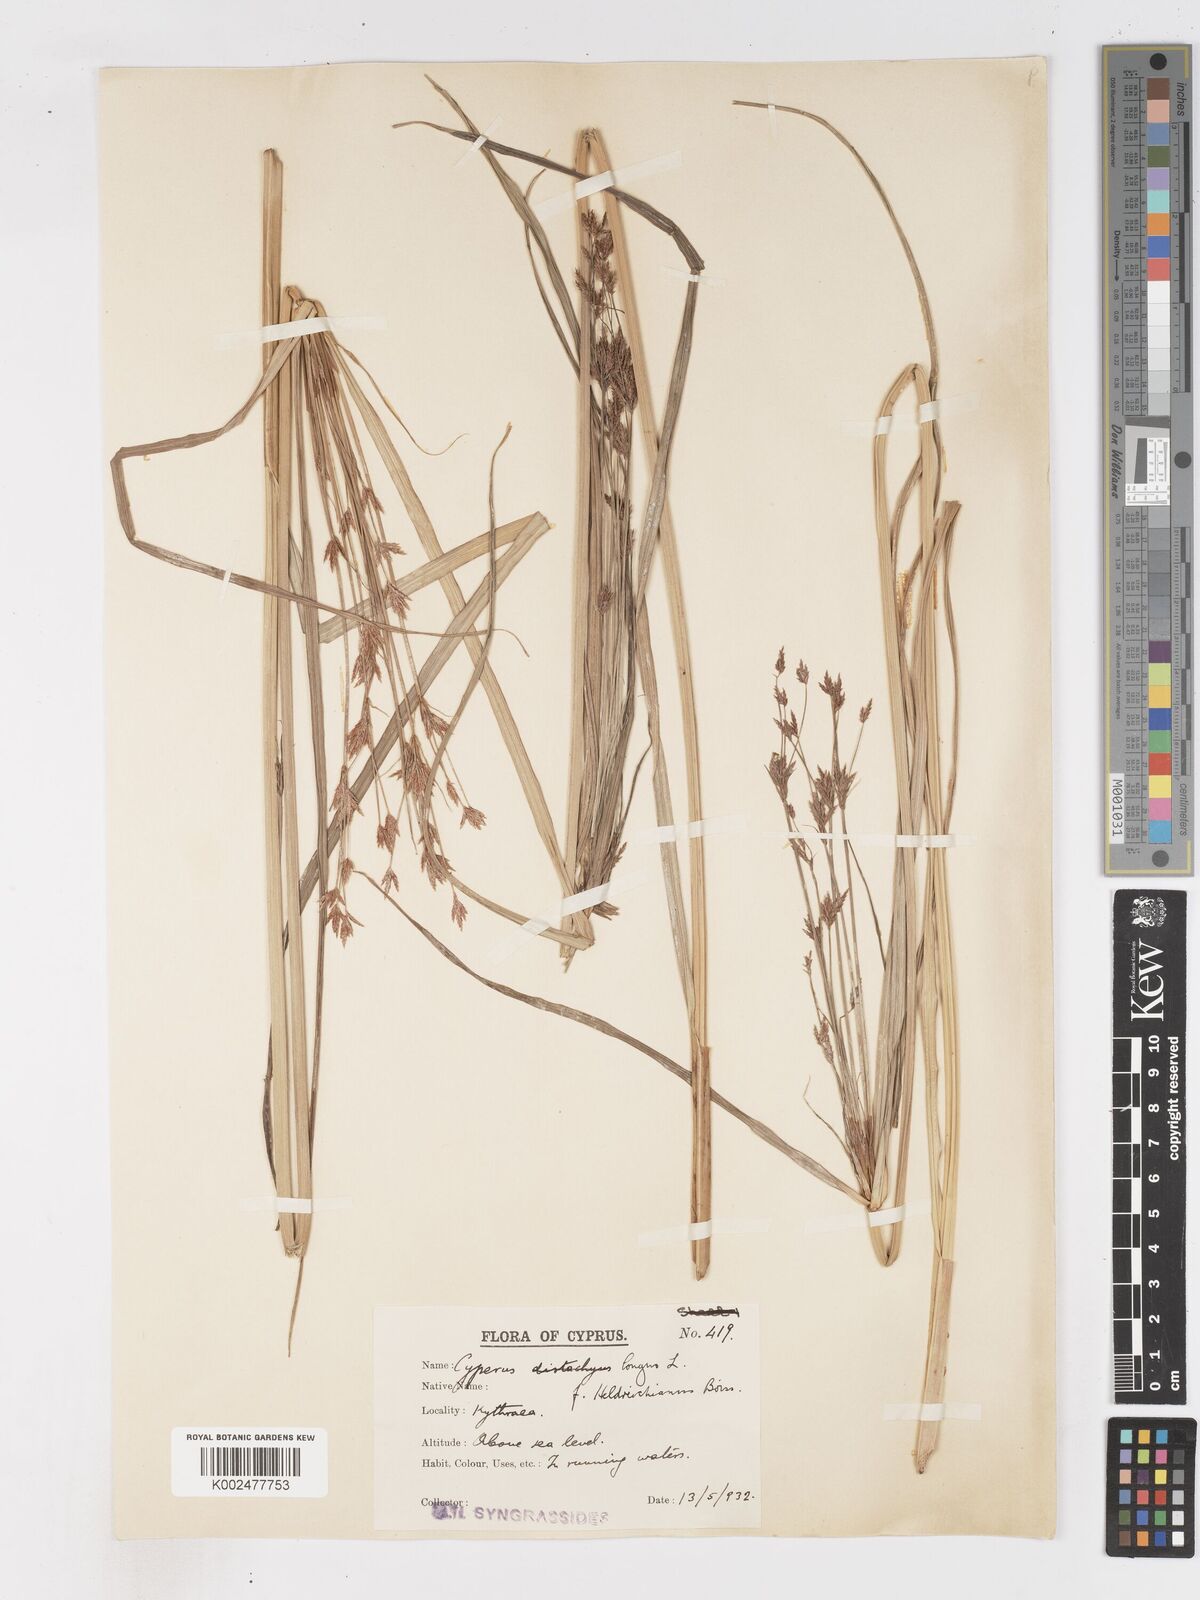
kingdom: Plantae
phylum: Tracheophyta
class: Liliopsida
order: Poales
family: Cyperaceae
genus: Cyperus
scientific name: Cyperus longus
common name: Galingale
